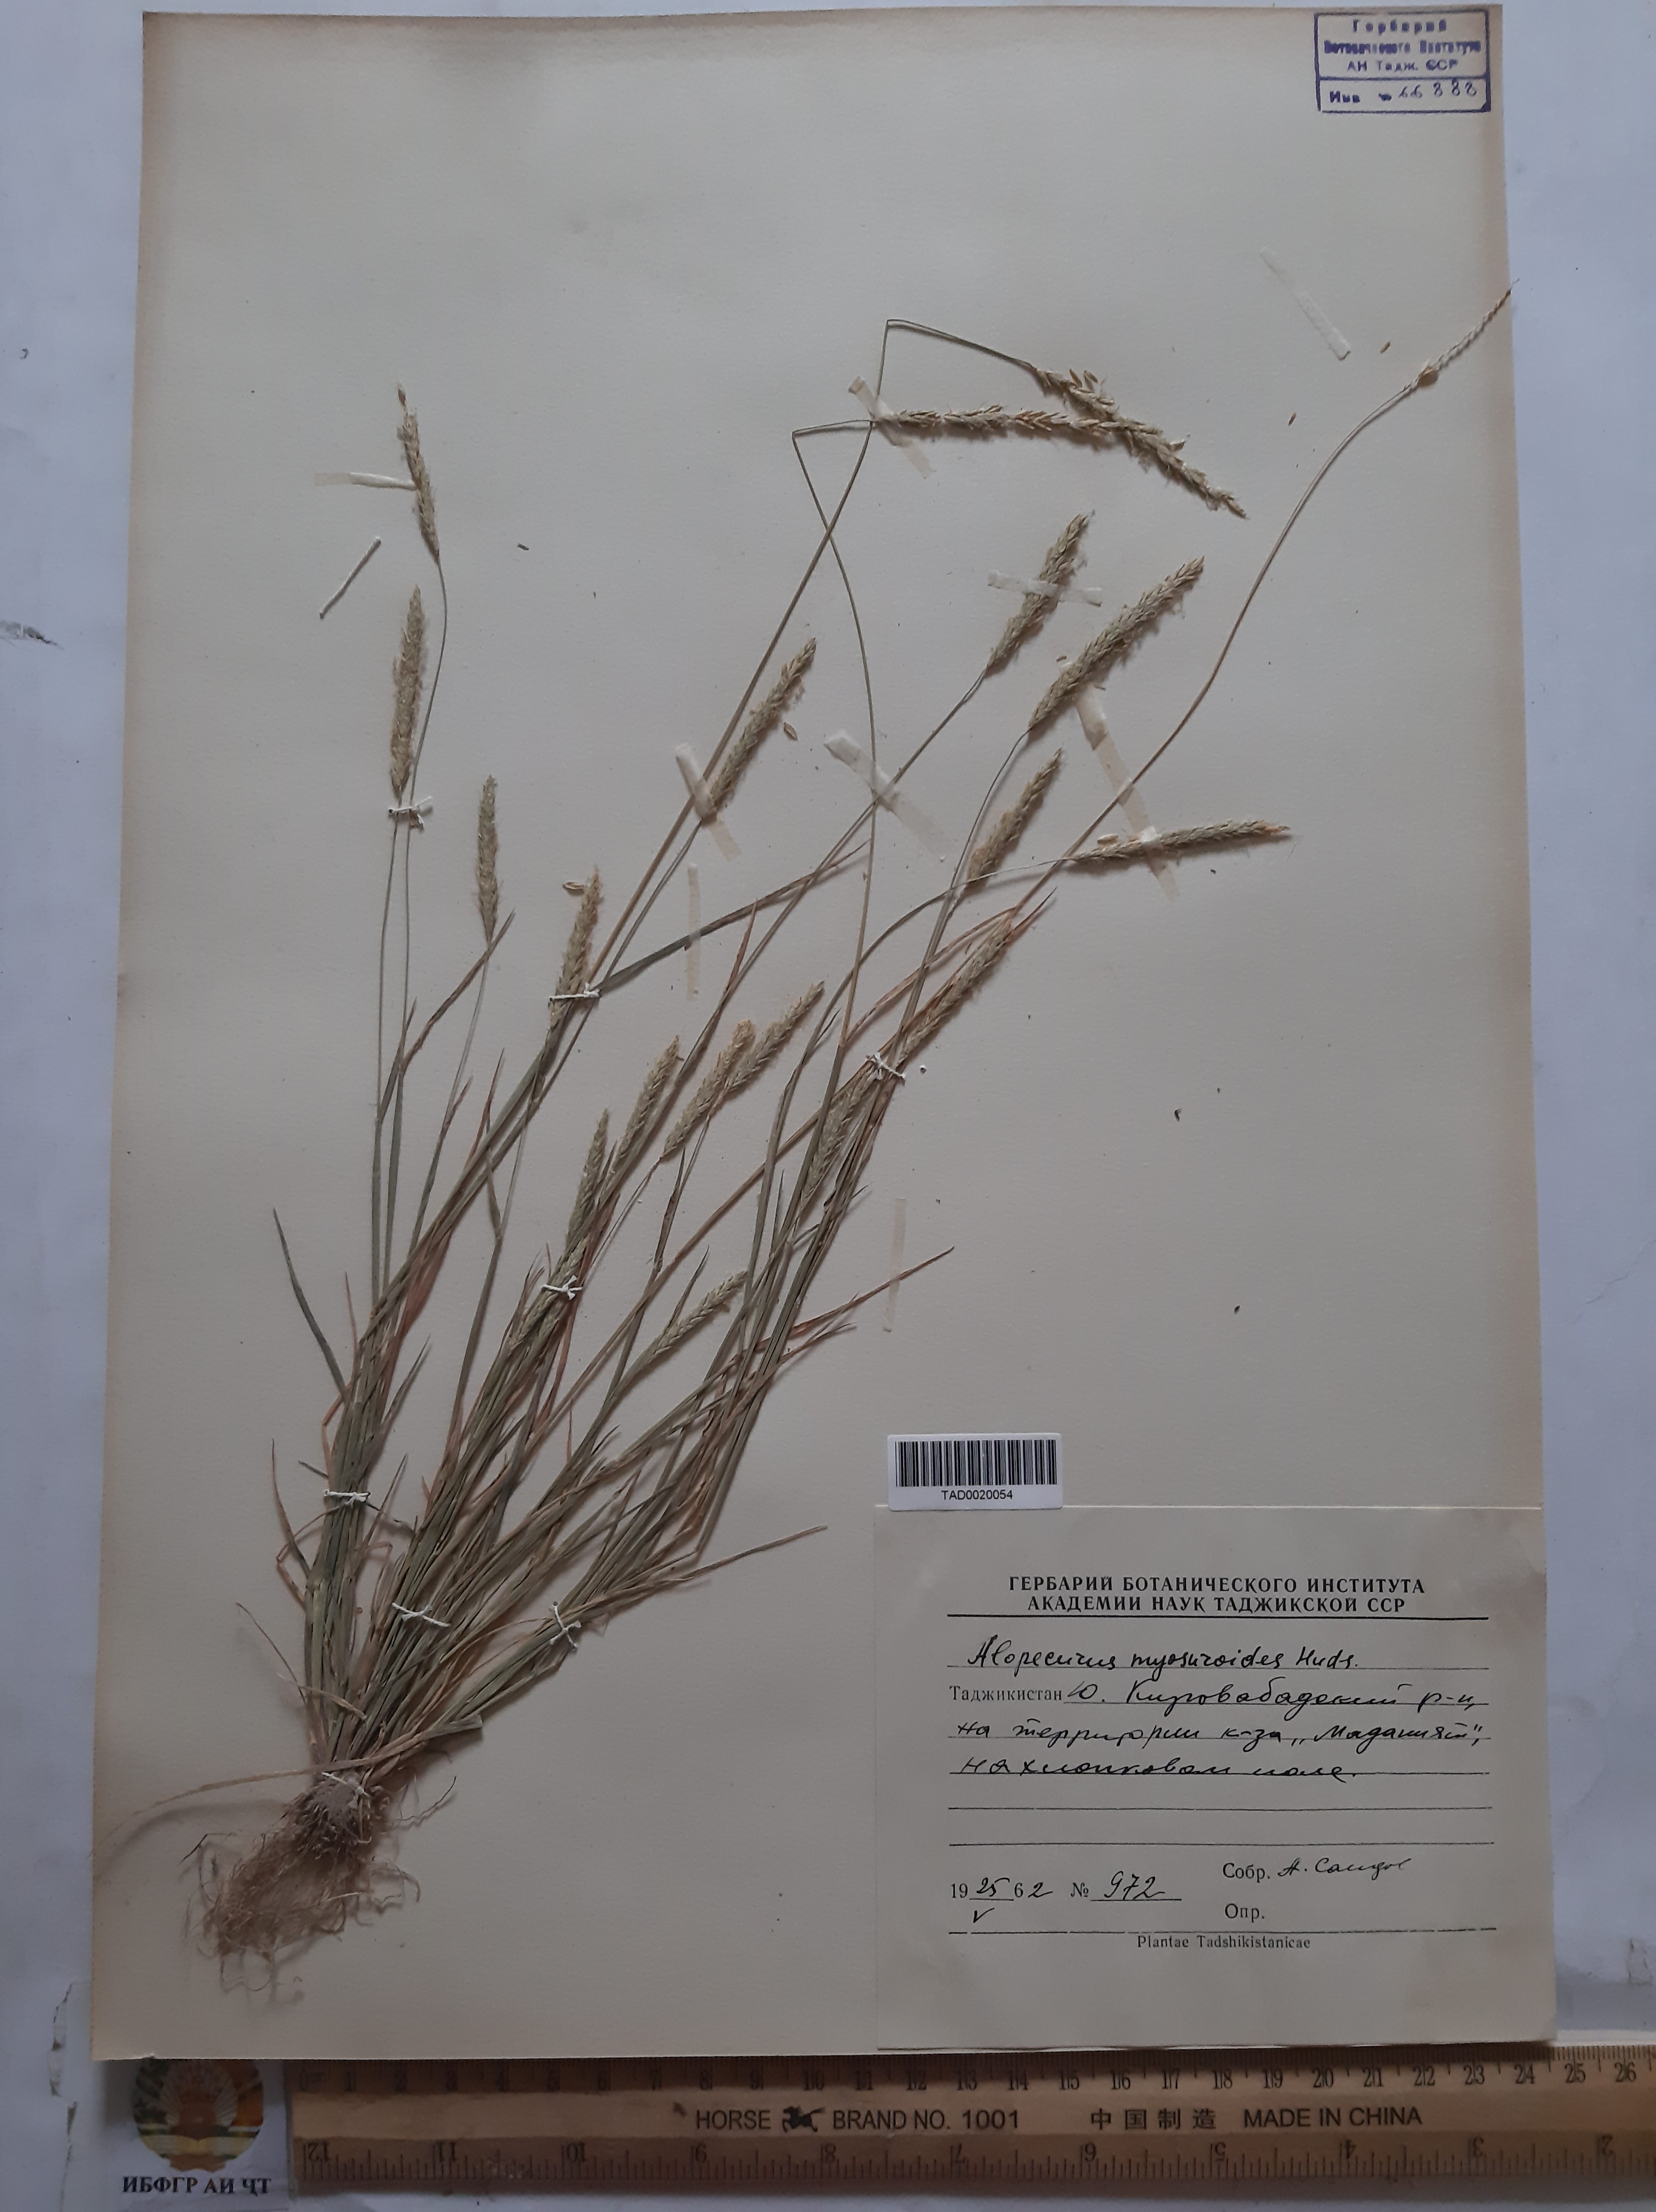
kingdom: Plantae
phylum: Tracheophyta
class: Liliopsida
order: Poales
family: Poaceae
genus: Alopecurus
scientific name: Alopecurus myosuroides
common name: Black-grass
